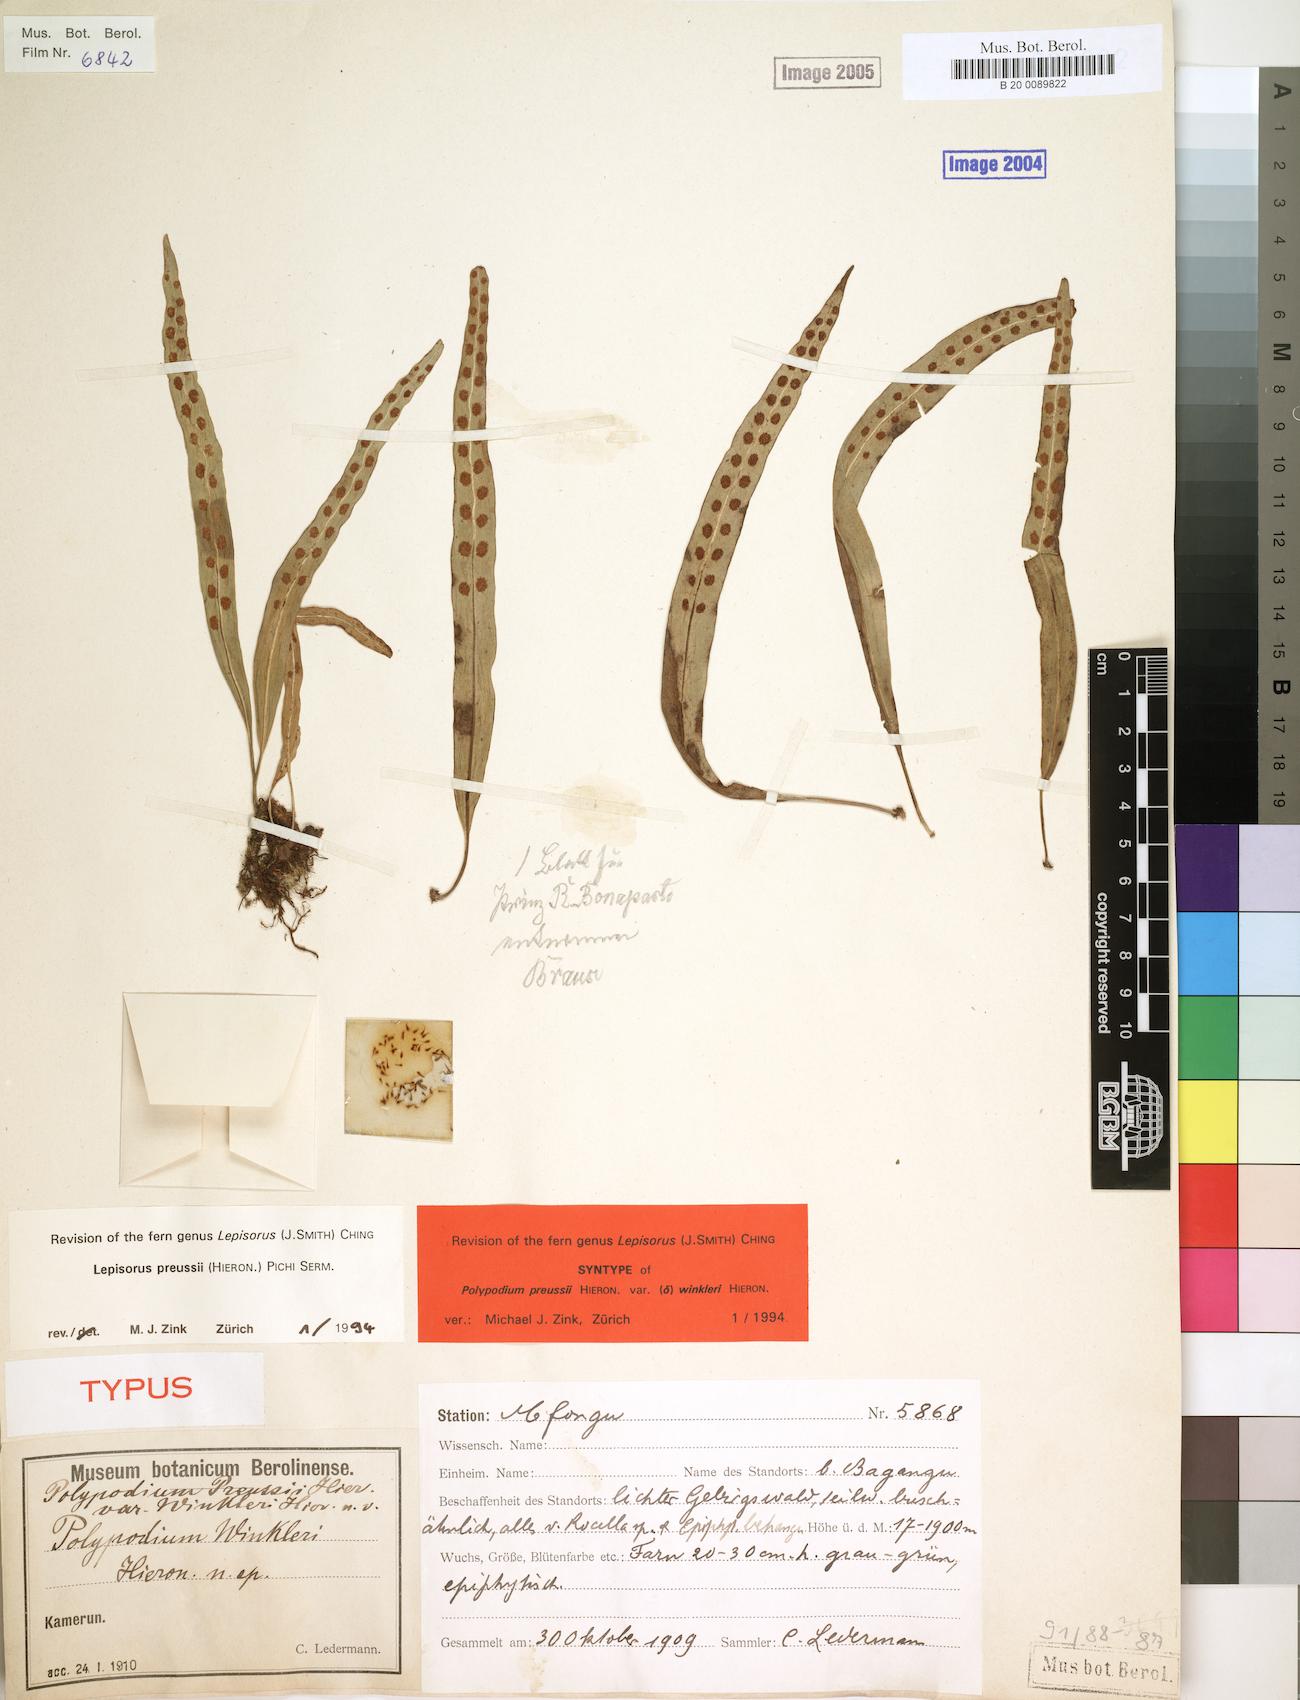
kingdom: Plantae
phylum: Tracheophyta
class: Polypodiopsida
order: Polypodiales
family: Polypodiaceae
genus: Lepisorus
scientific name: Lepisorus excavatus
